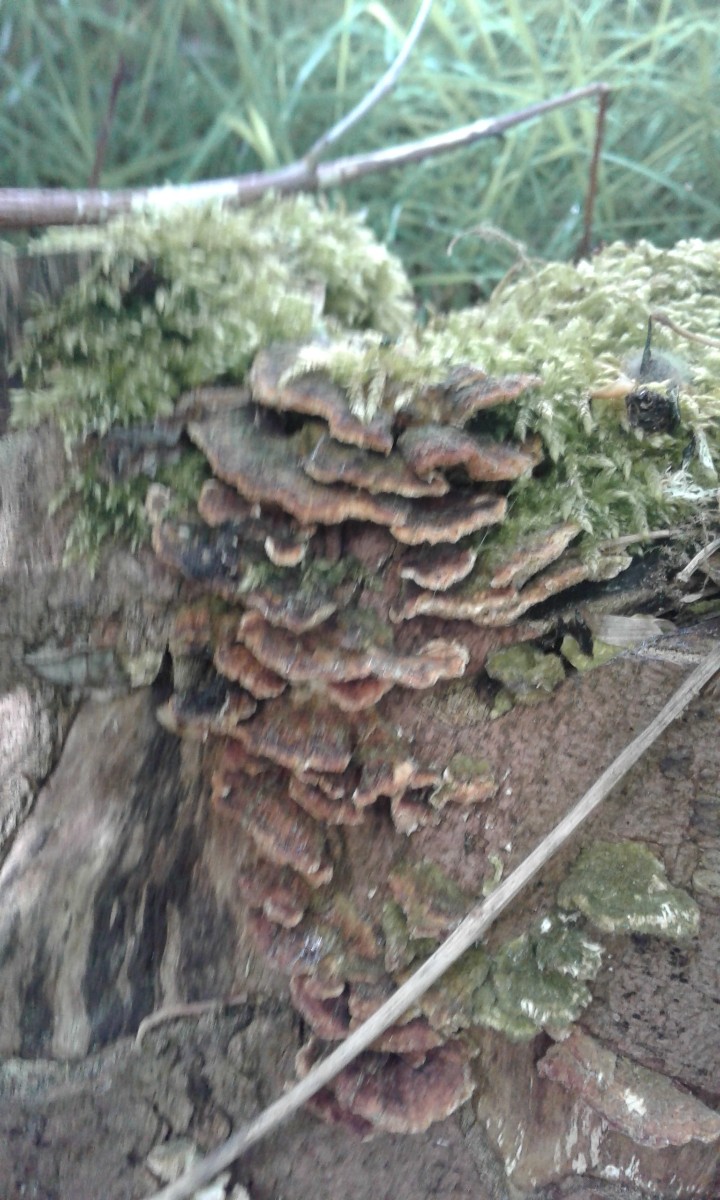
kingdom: Fungi
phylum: Basidiomycota
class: Agaricomycetes
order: Polyporales
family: Polyporaceae
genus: Trametes
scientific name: Trametes versicolor
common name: broget læderporesvamp
